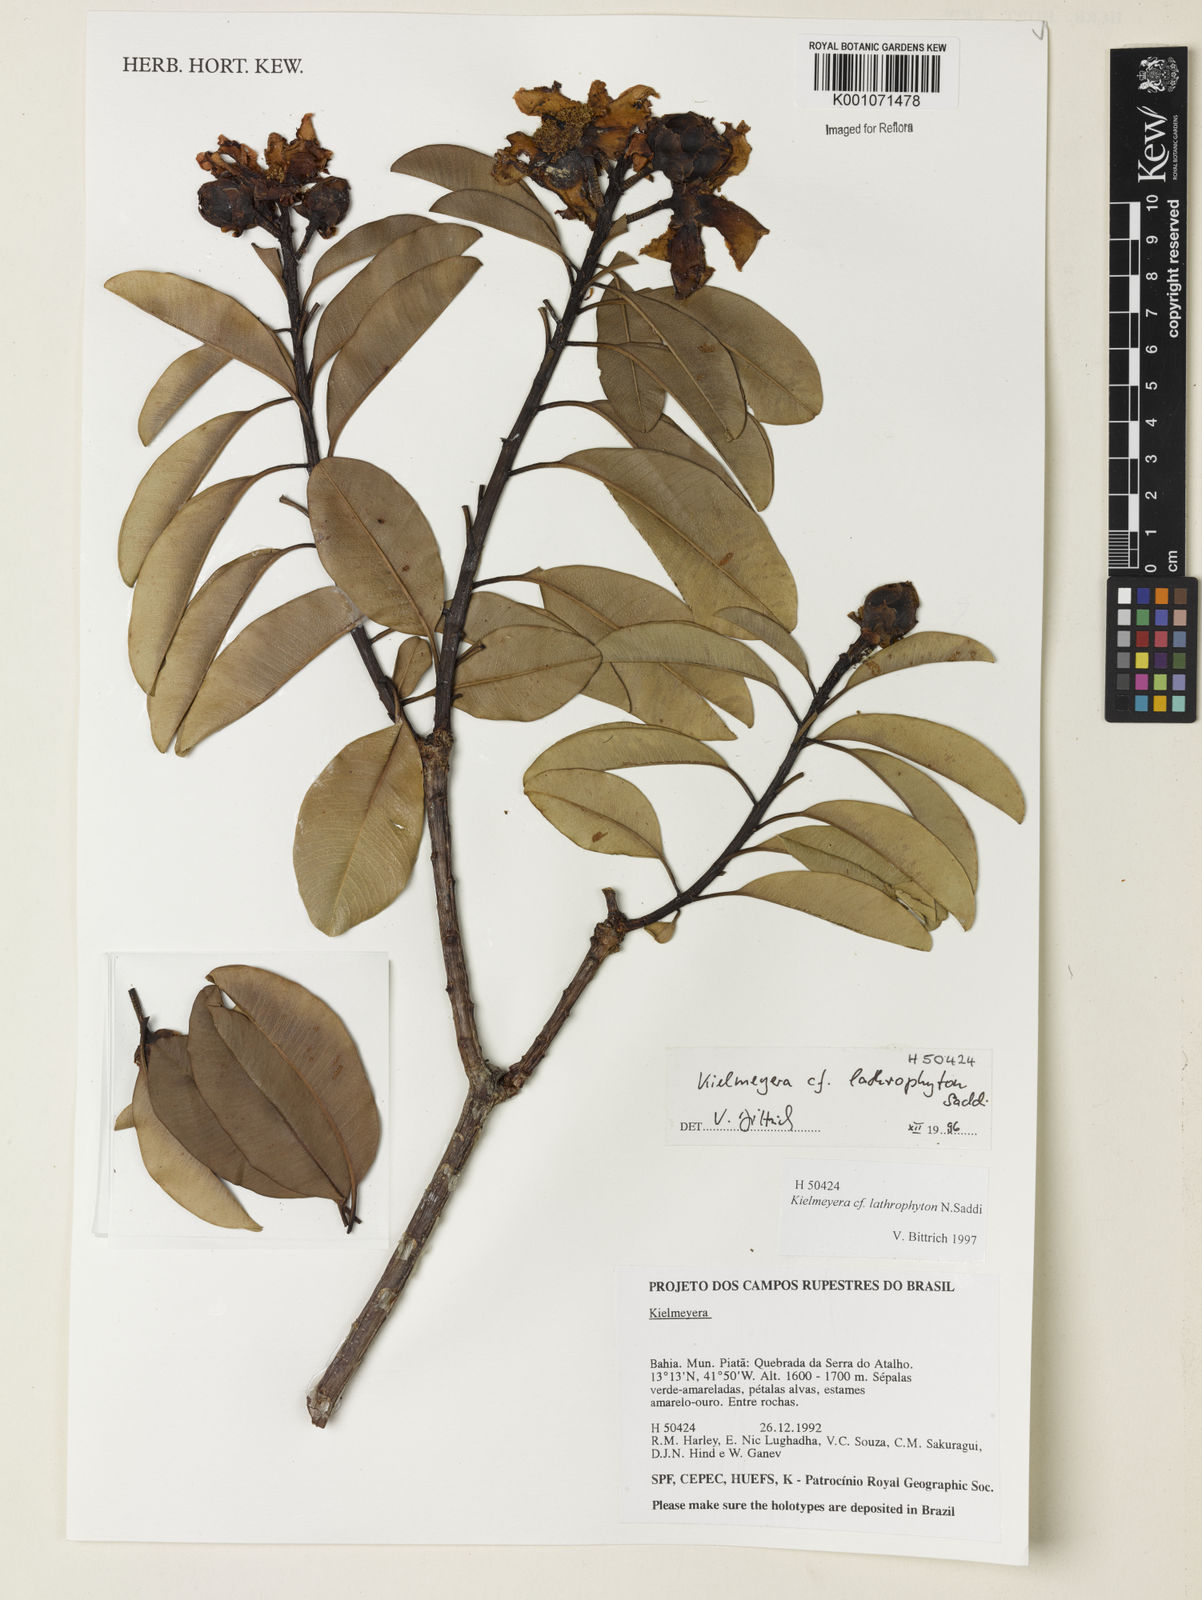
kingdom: Plantae
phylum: Tracheophyta
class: Magnoliopsida
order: Malpighiales
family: Calophyllaceae
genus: Kielmeyera
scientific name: Kielmeyera lathrophyton
